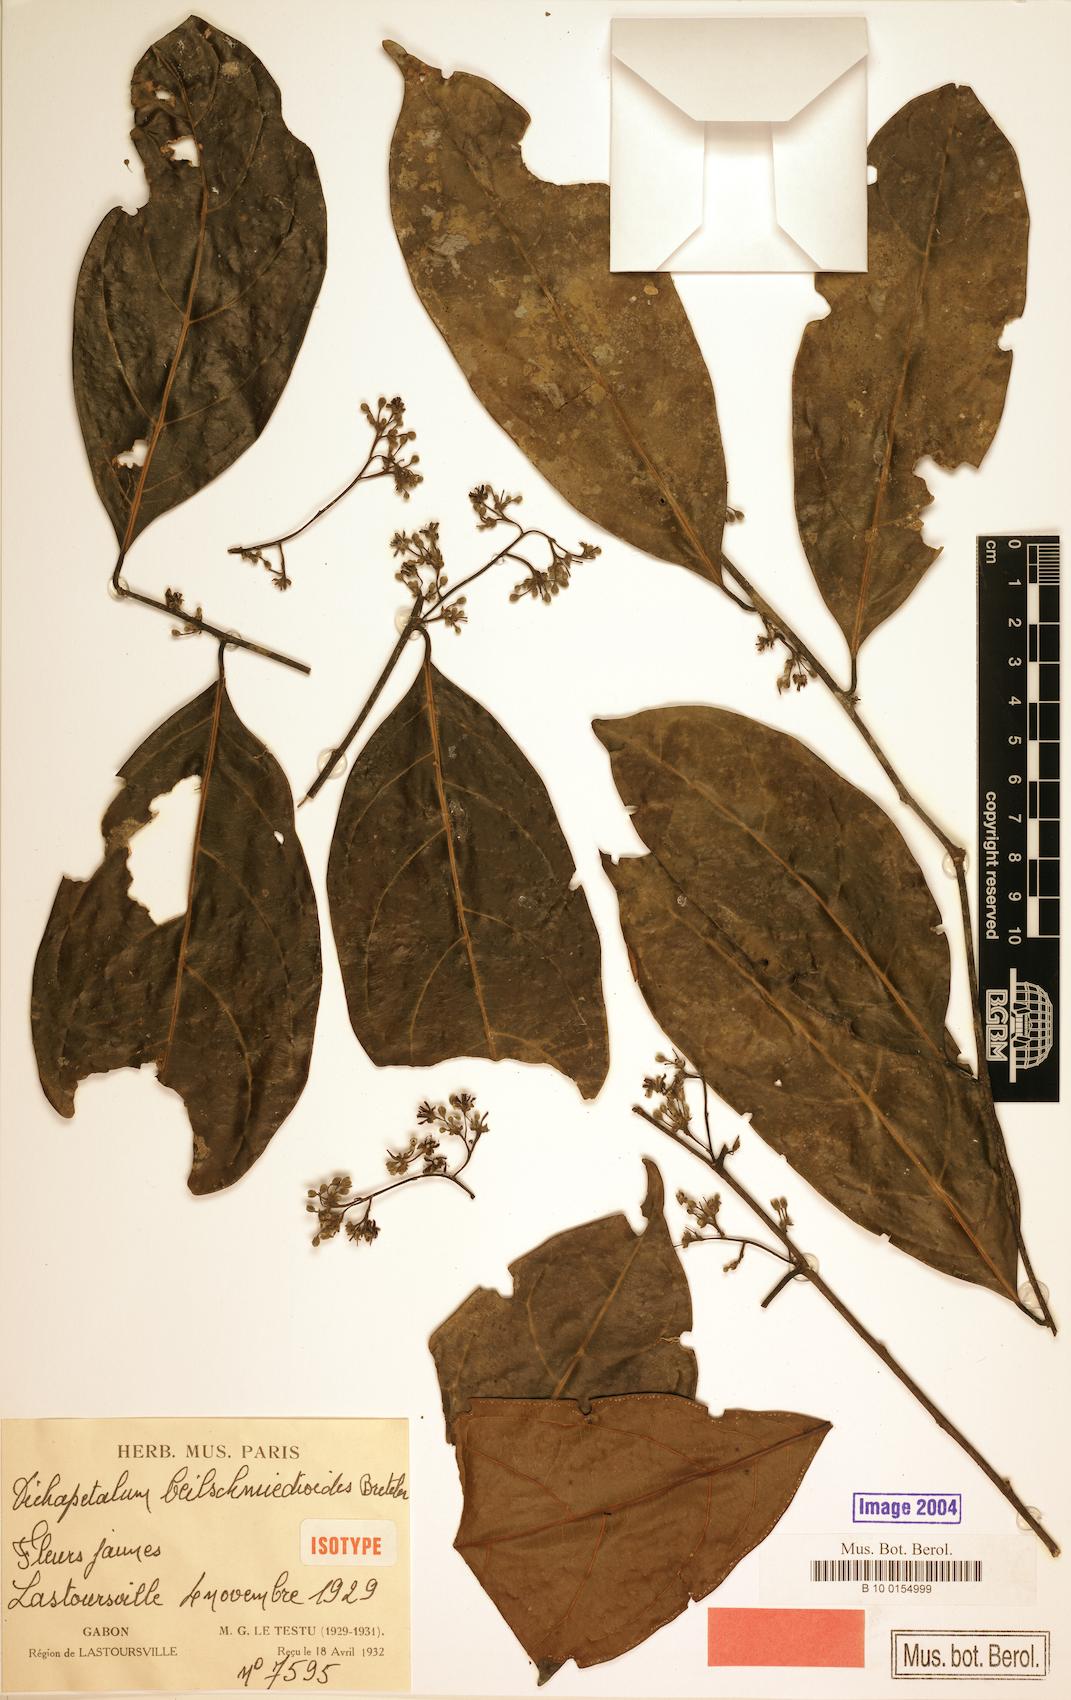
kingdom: Plantae
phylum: Tracheophyta
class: Magnoliopsida
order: Malpighiales
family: Dichapetalaceae
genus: Dichapetalum
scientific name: Dichapetalum beilschmiedioides
